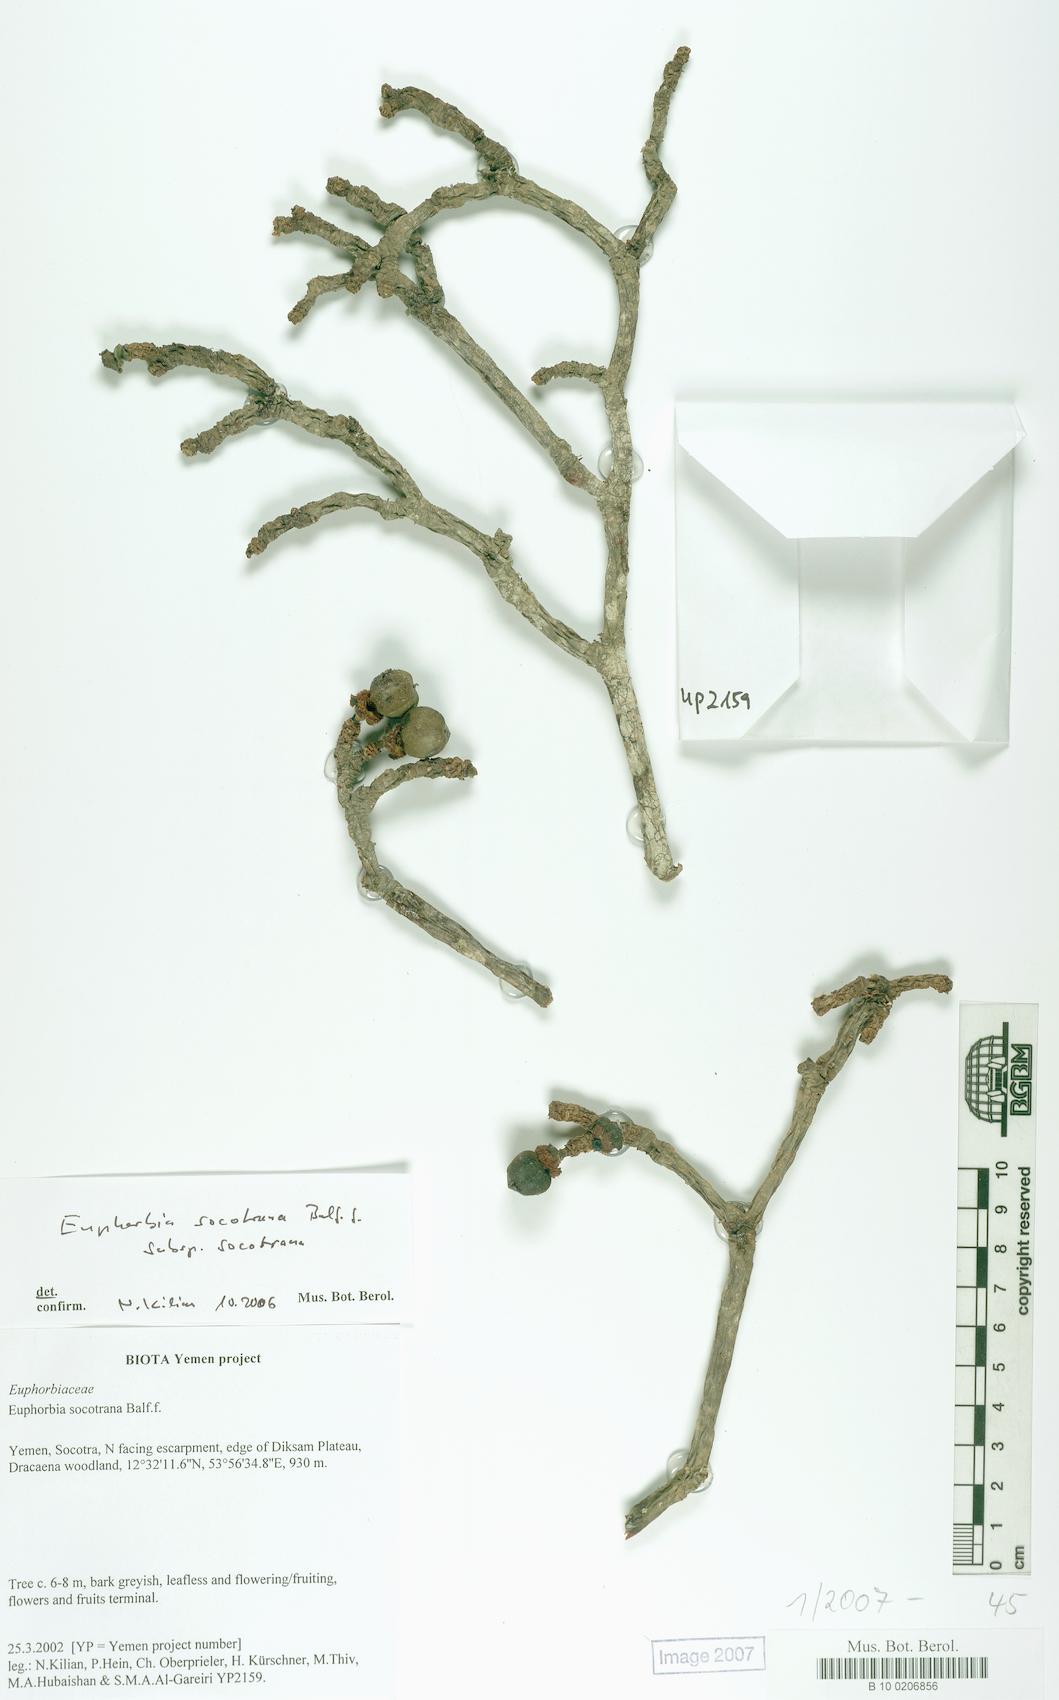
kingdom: Plantae
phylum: Tracheophyta
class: Magnoliopsida
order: Malpighiales
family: Euphorbiaceae
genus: Euphorbia
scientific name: Euphorbia socotrana
